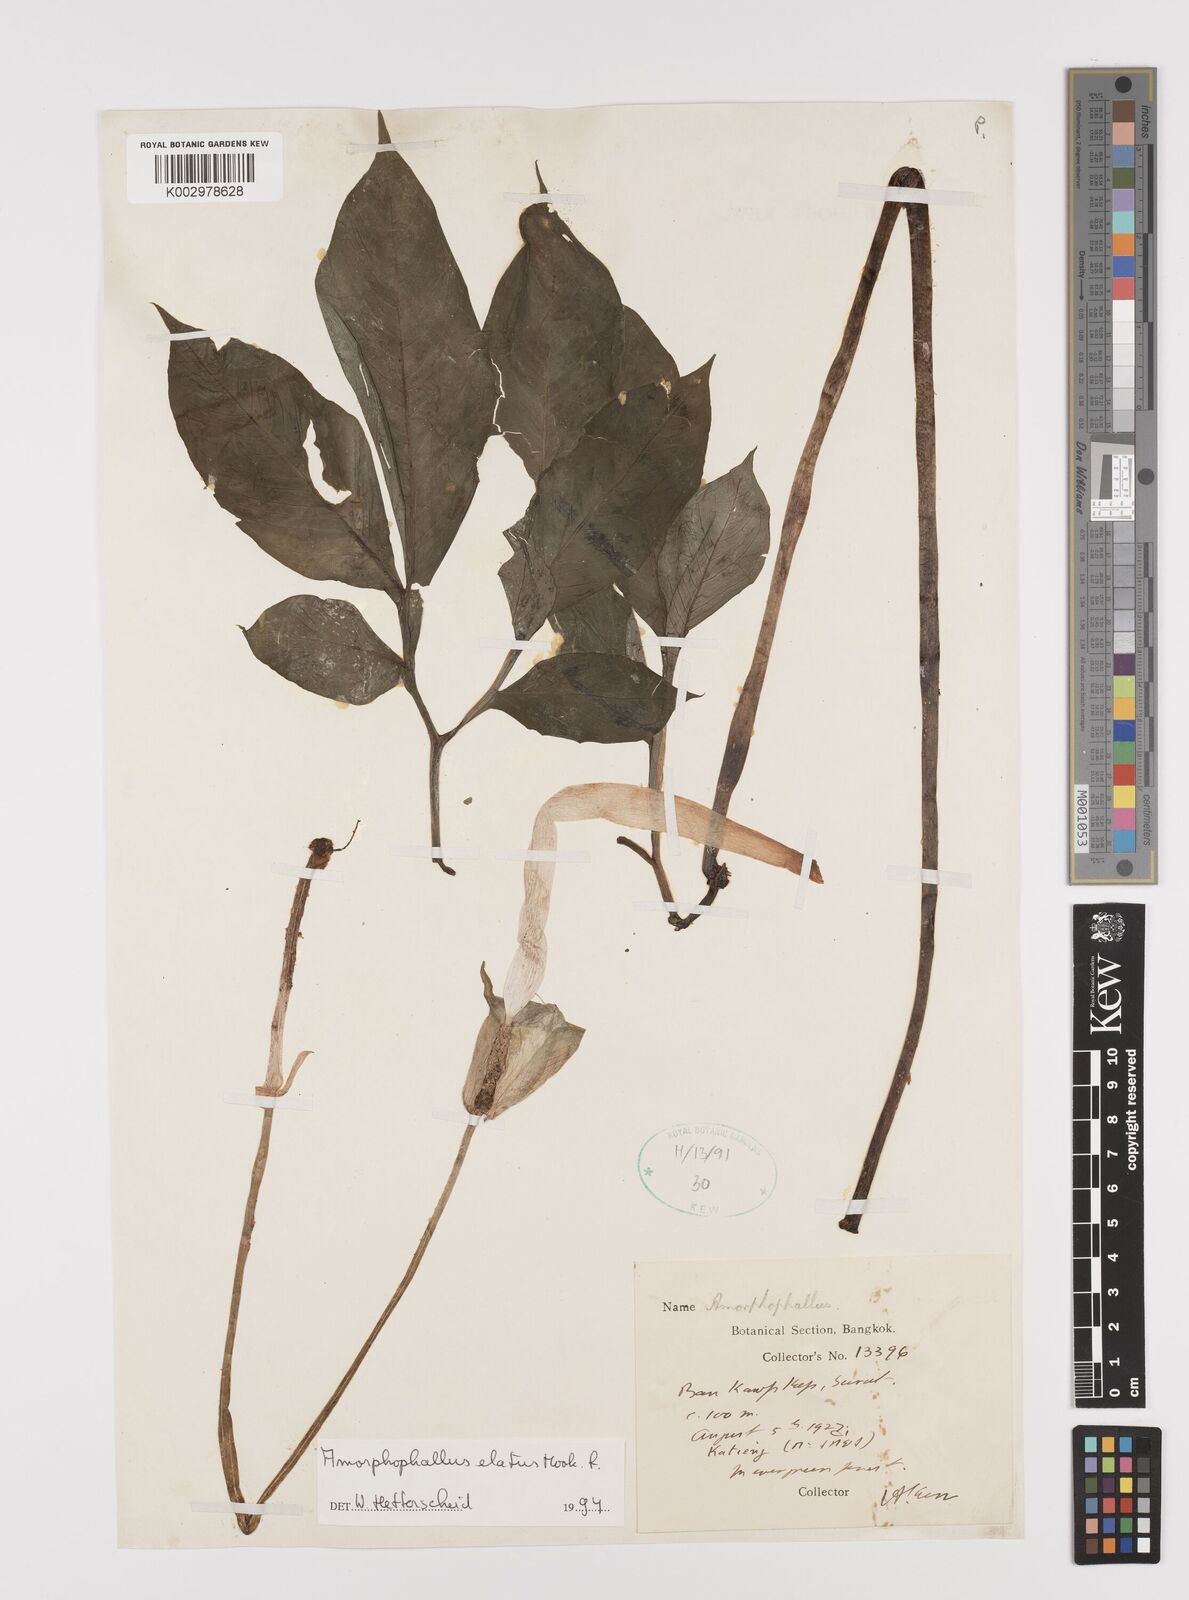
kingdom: Plantae
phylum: Tracheophyta
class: Liliopsida
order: Alismatales
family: Araceae
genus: Amorphophallus
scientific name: Amorphophallus elatus
